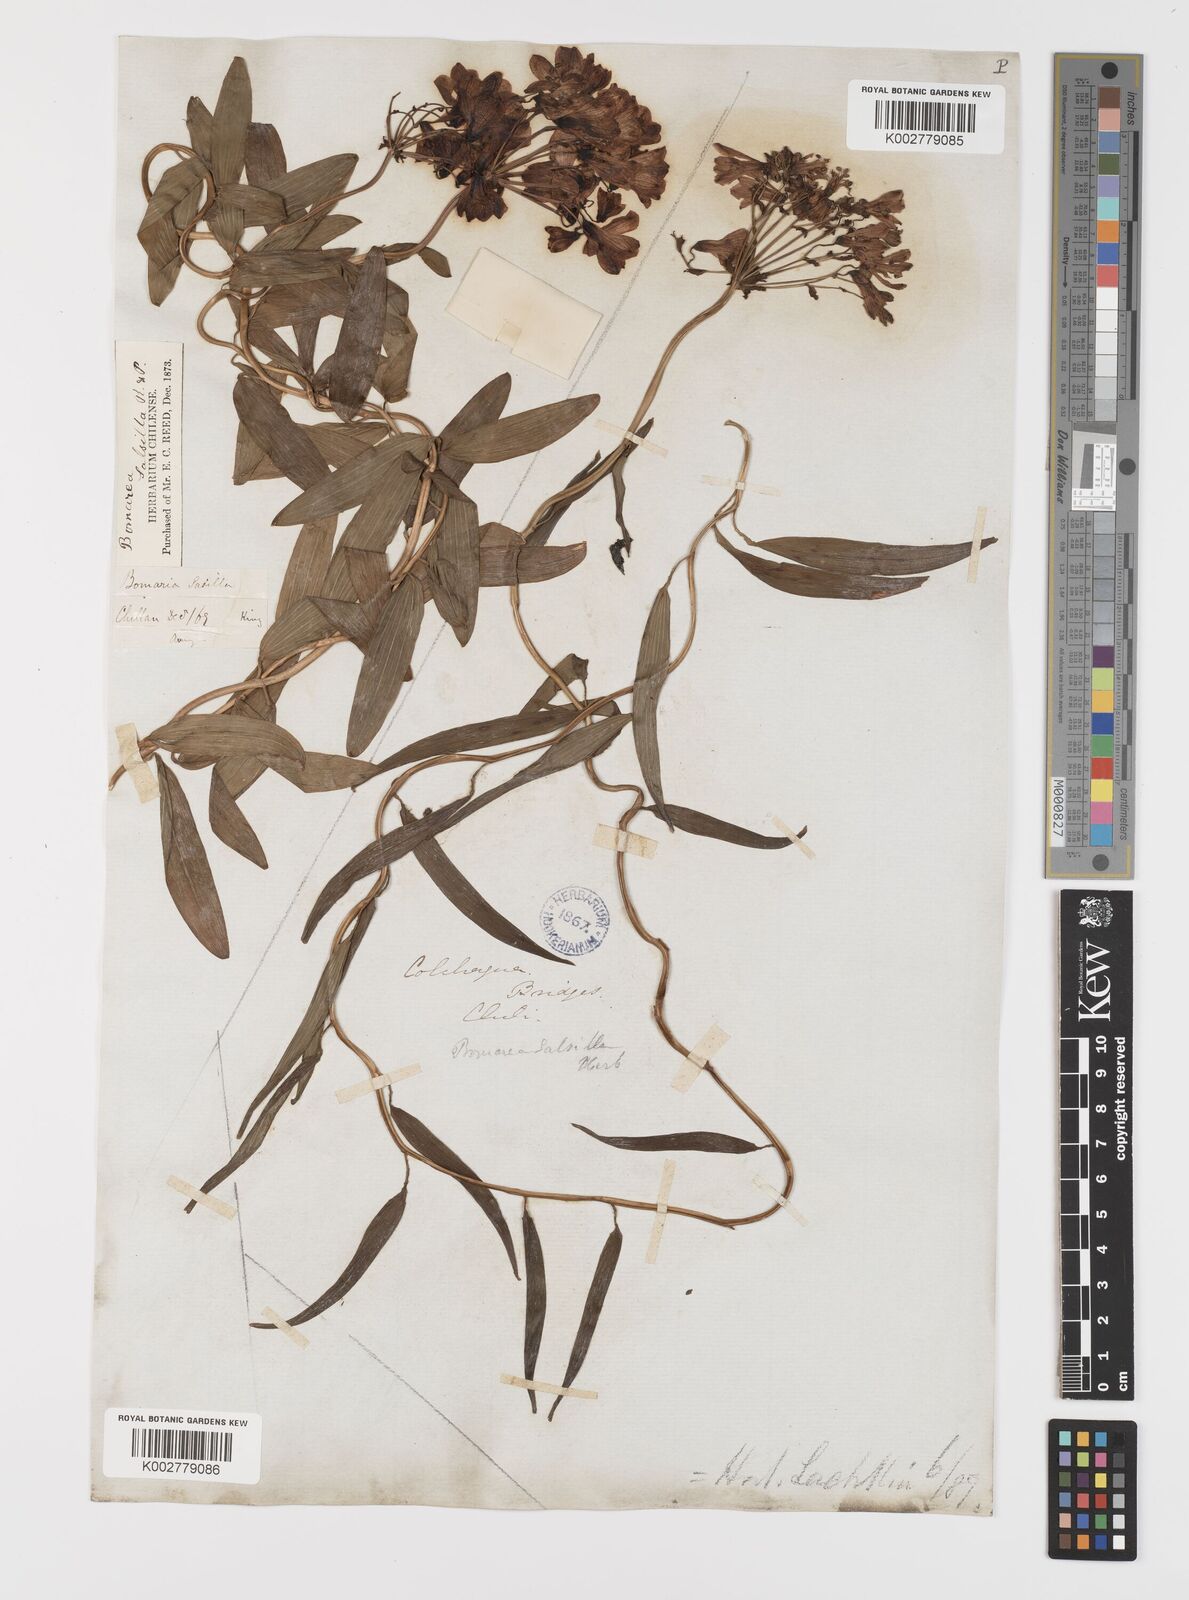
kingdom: Plantae
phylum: Tracheophyta
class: Liliopsida
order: Liliales
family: Alstroemeriaceae
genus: Bomarea
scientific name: Bomarea edulis
